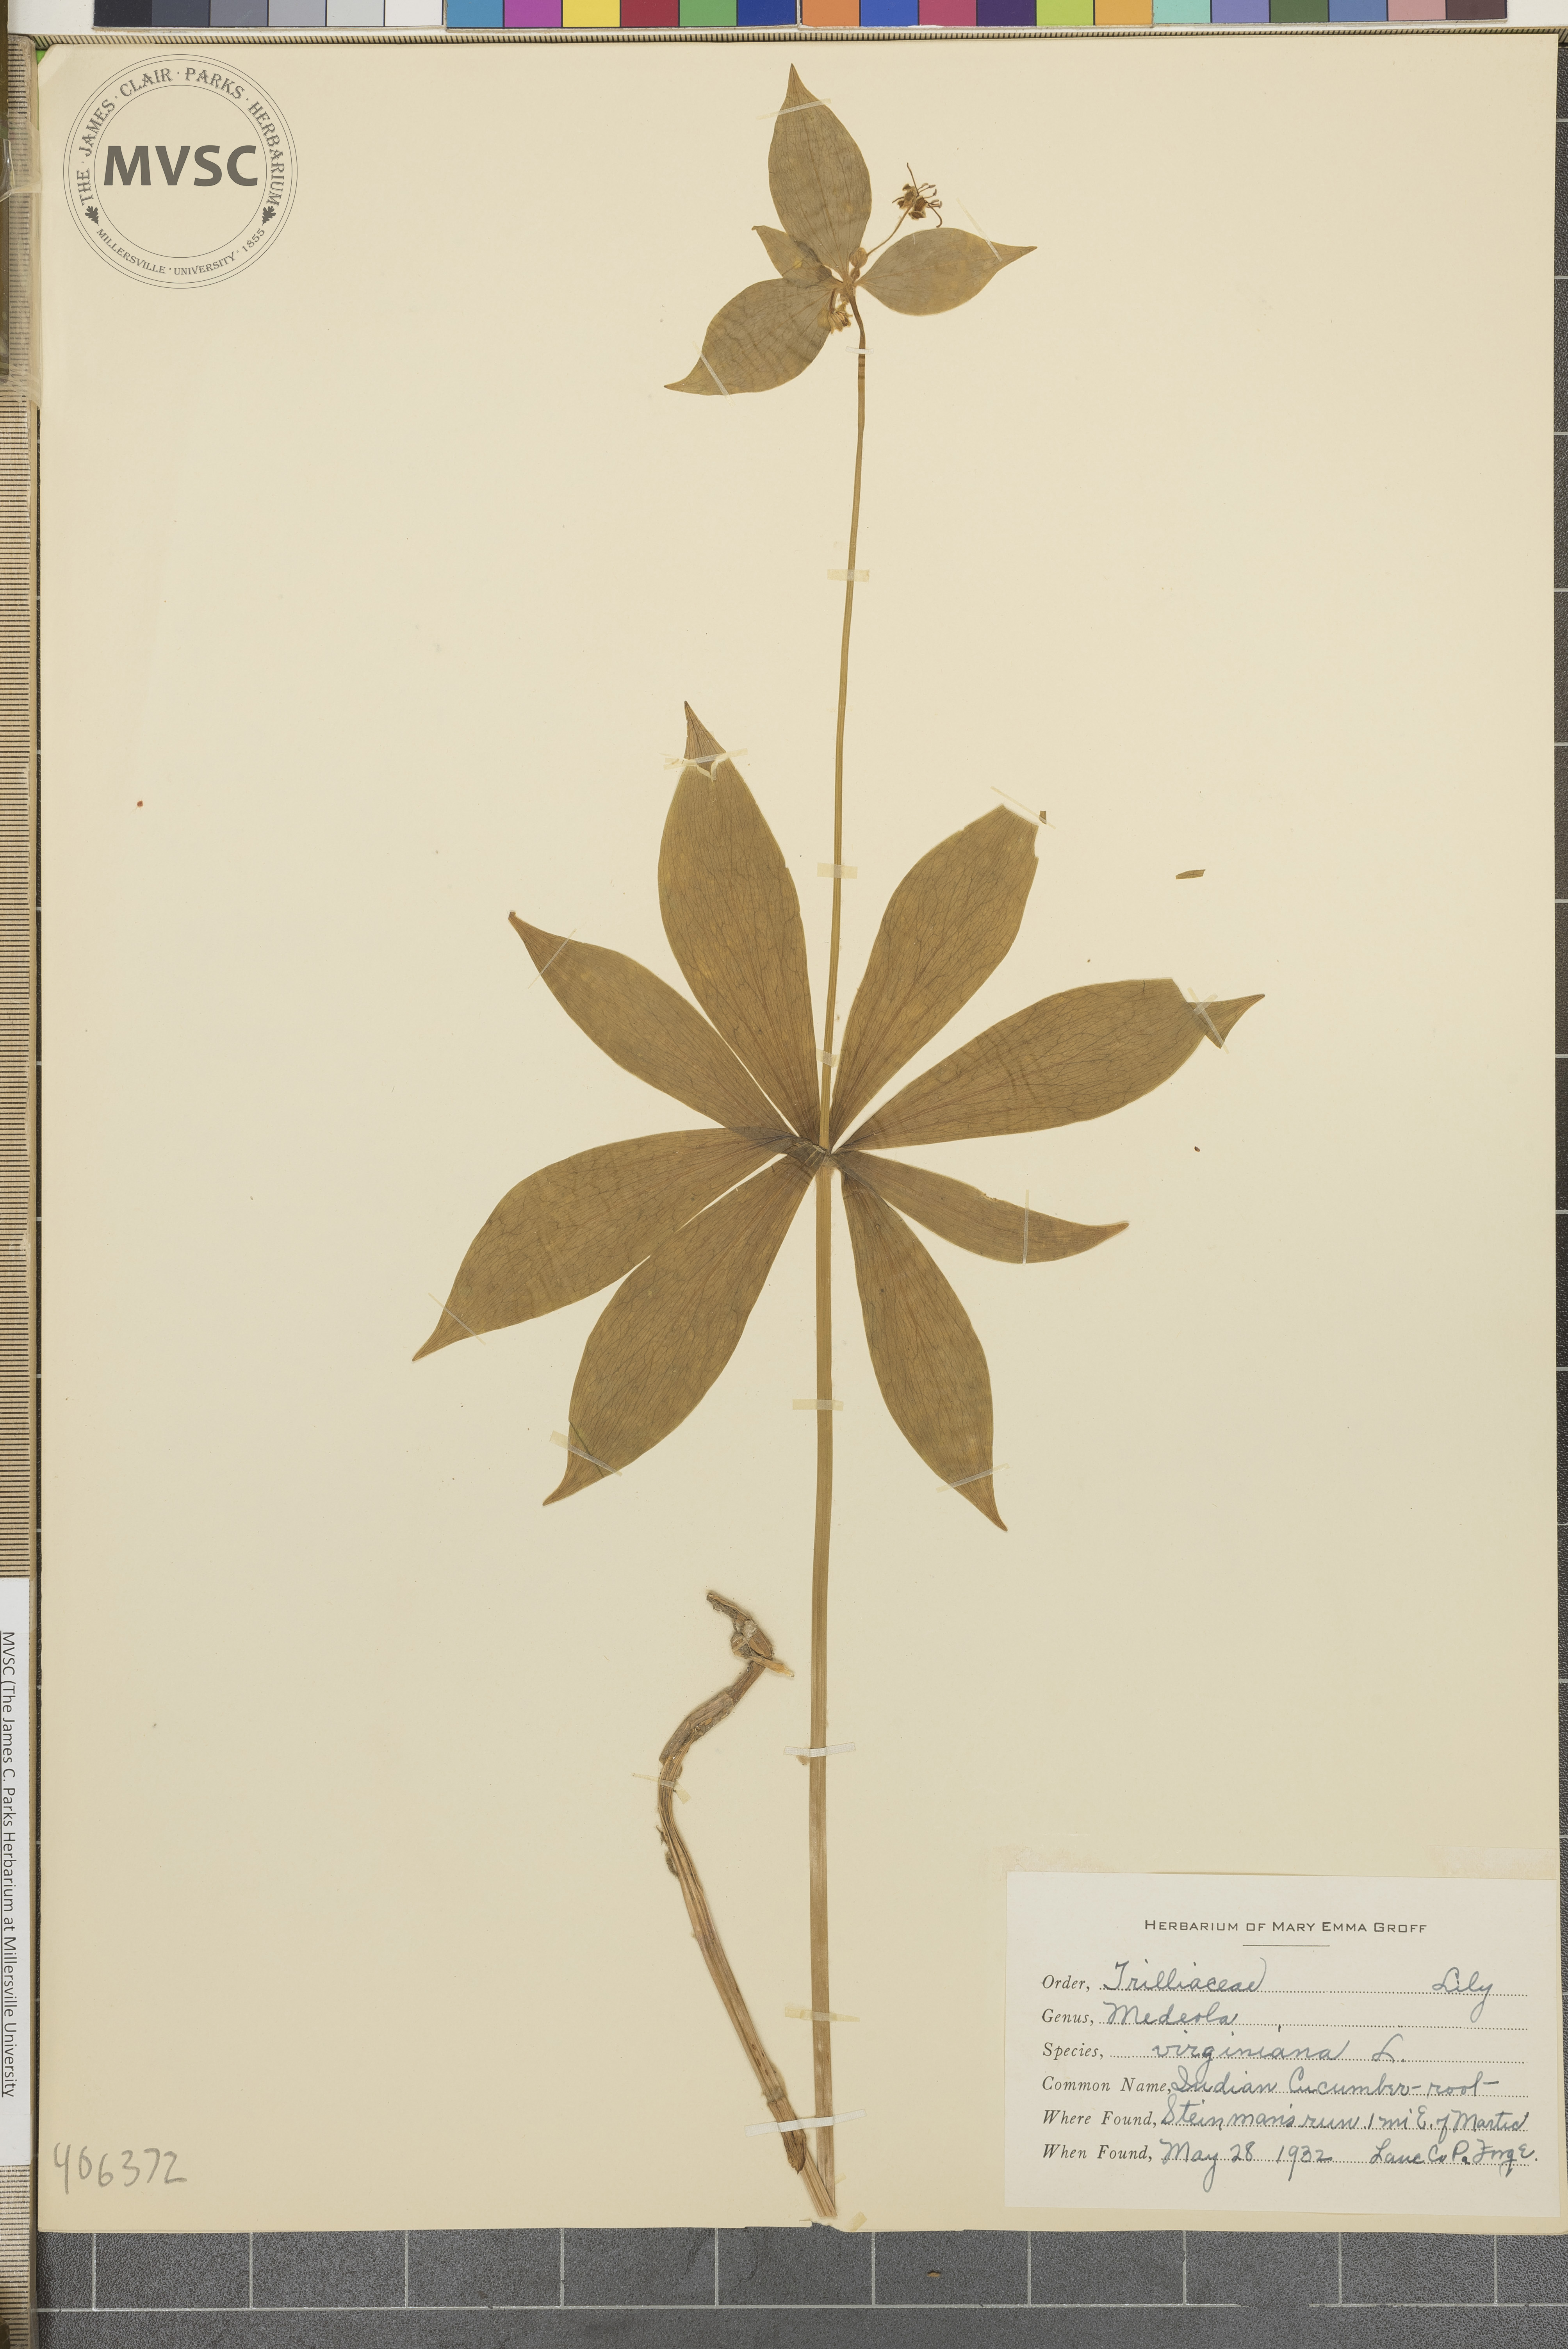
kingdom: Plantae
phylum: Tracheophyta
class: Liliopsida
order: Liliales
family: Liliaceae
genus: Medeola
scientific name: Medeola virginiana
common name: Indian Cucumber root
